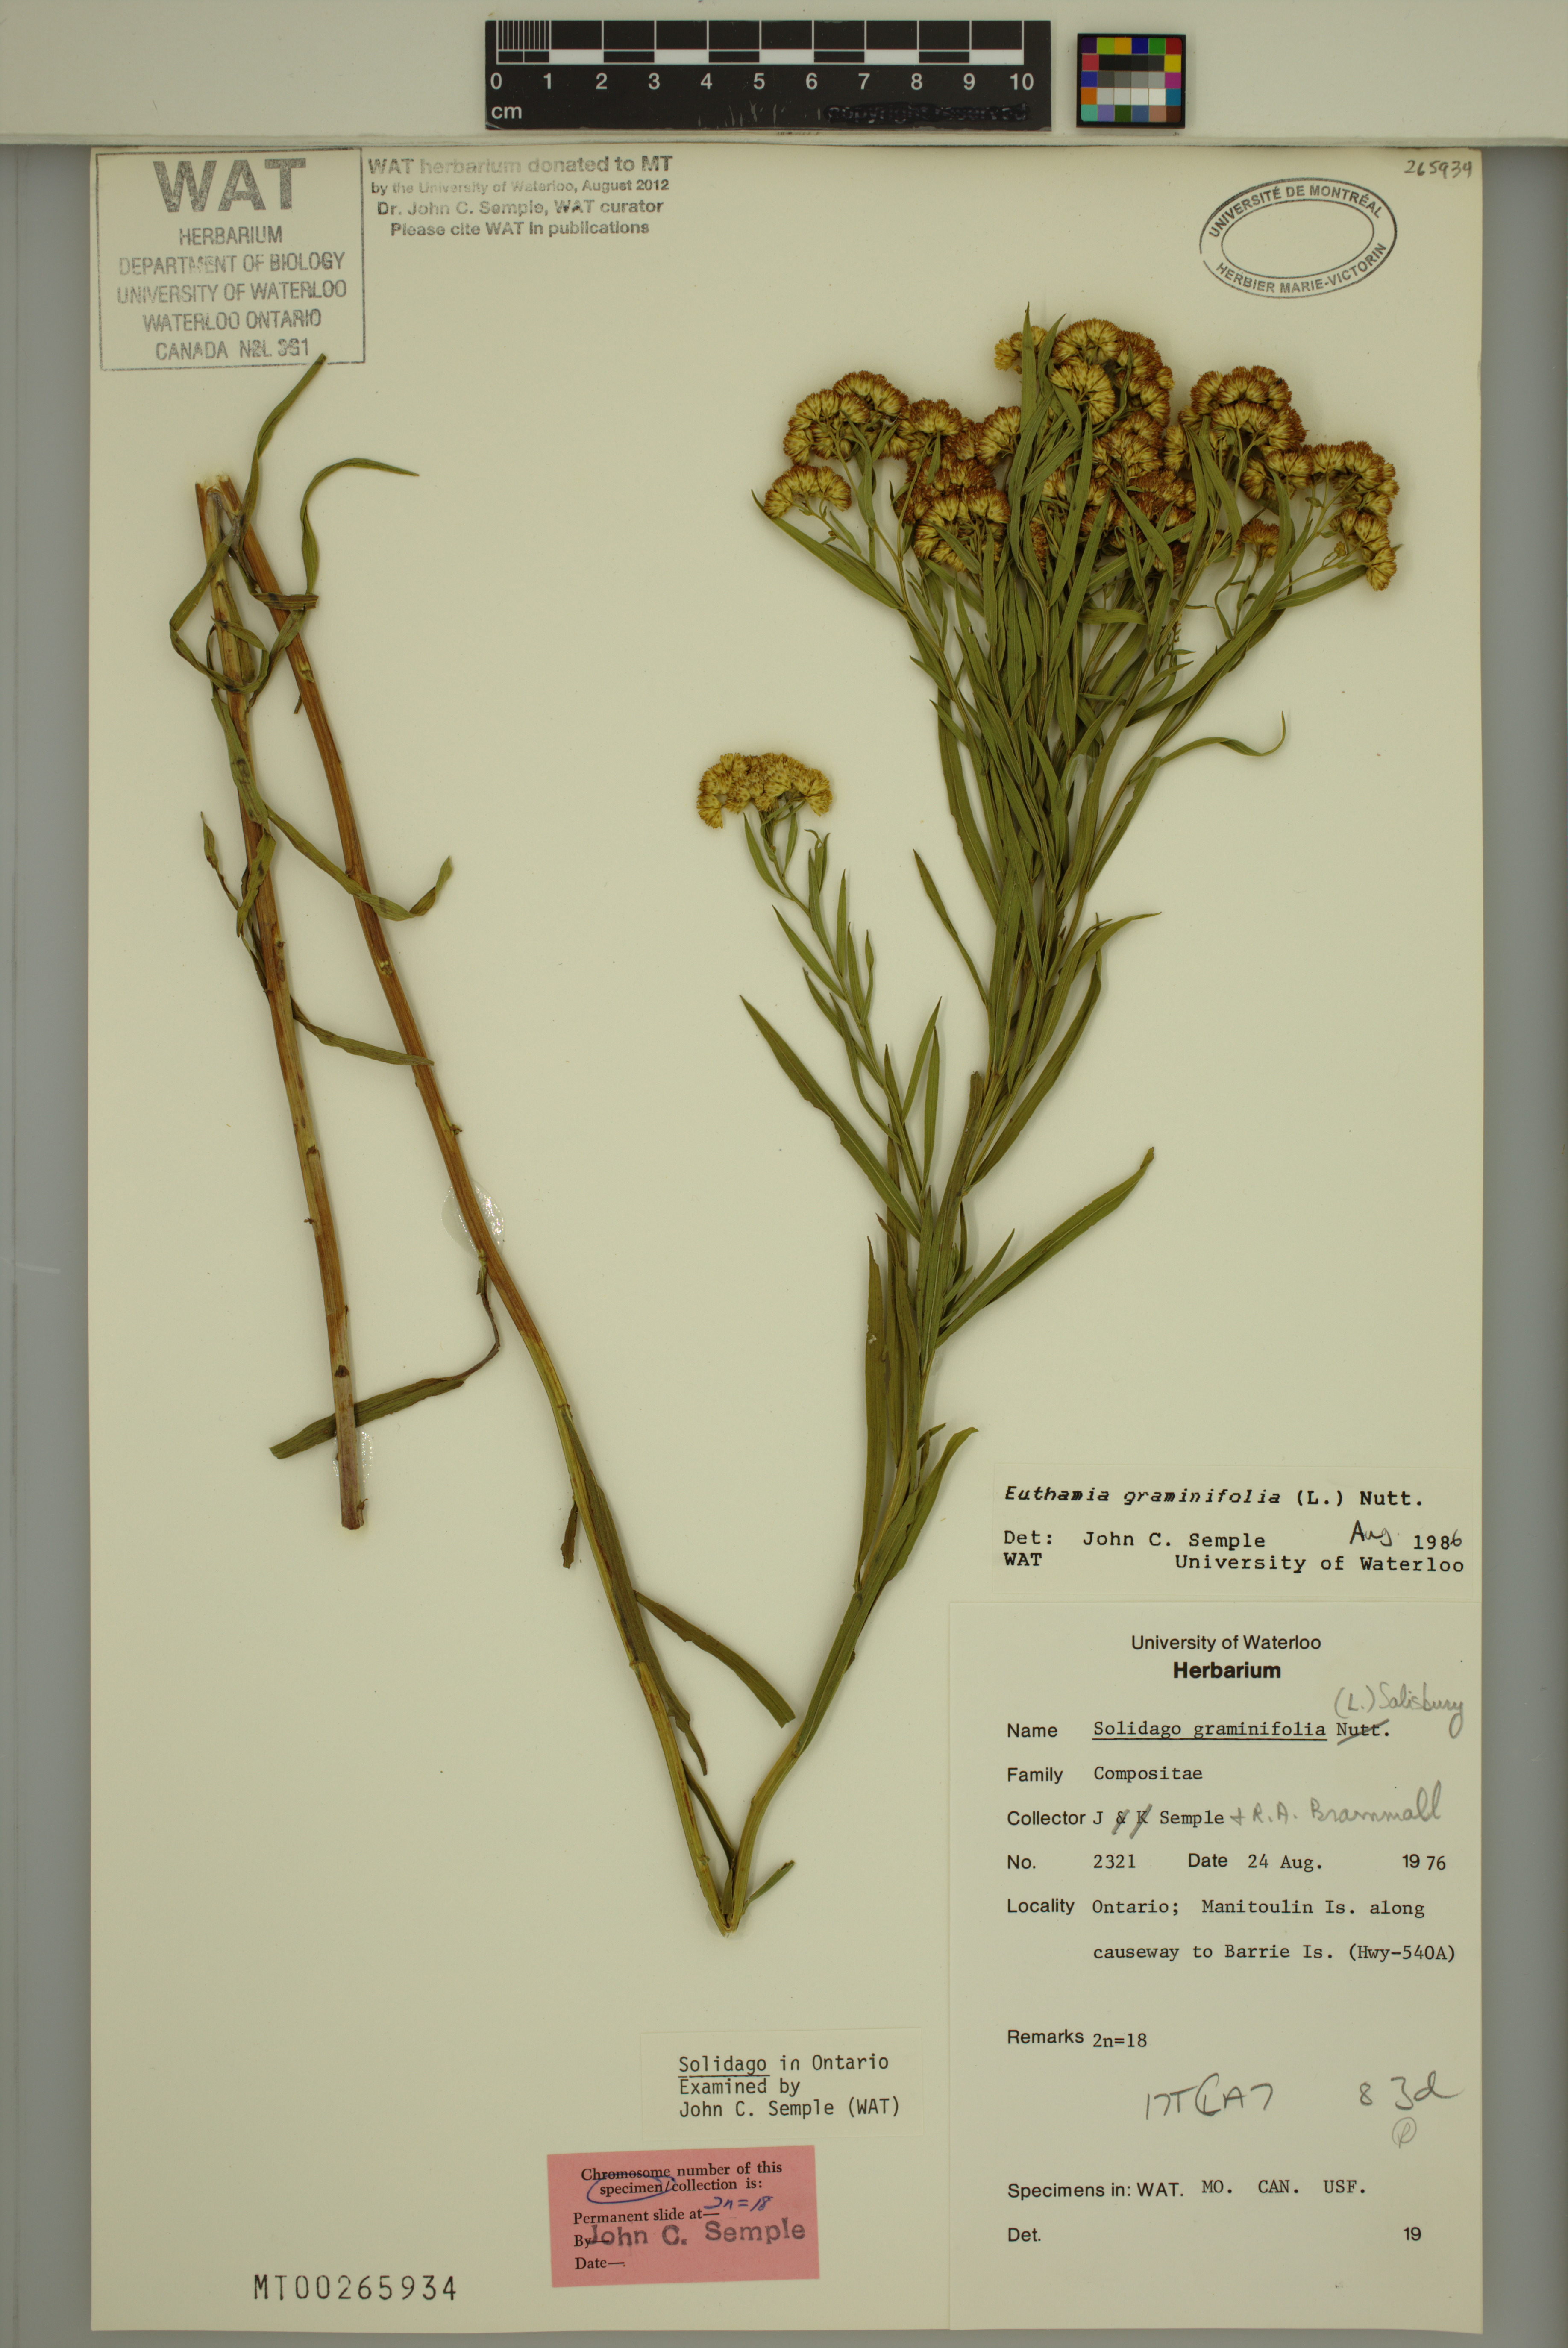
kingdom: Plantae
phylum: Tracheophyta
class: Magnoliopsida
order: Asterales
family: Asteraceae
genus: Euthamia
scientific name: Euthamia graminifolia
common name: Common goldentop
